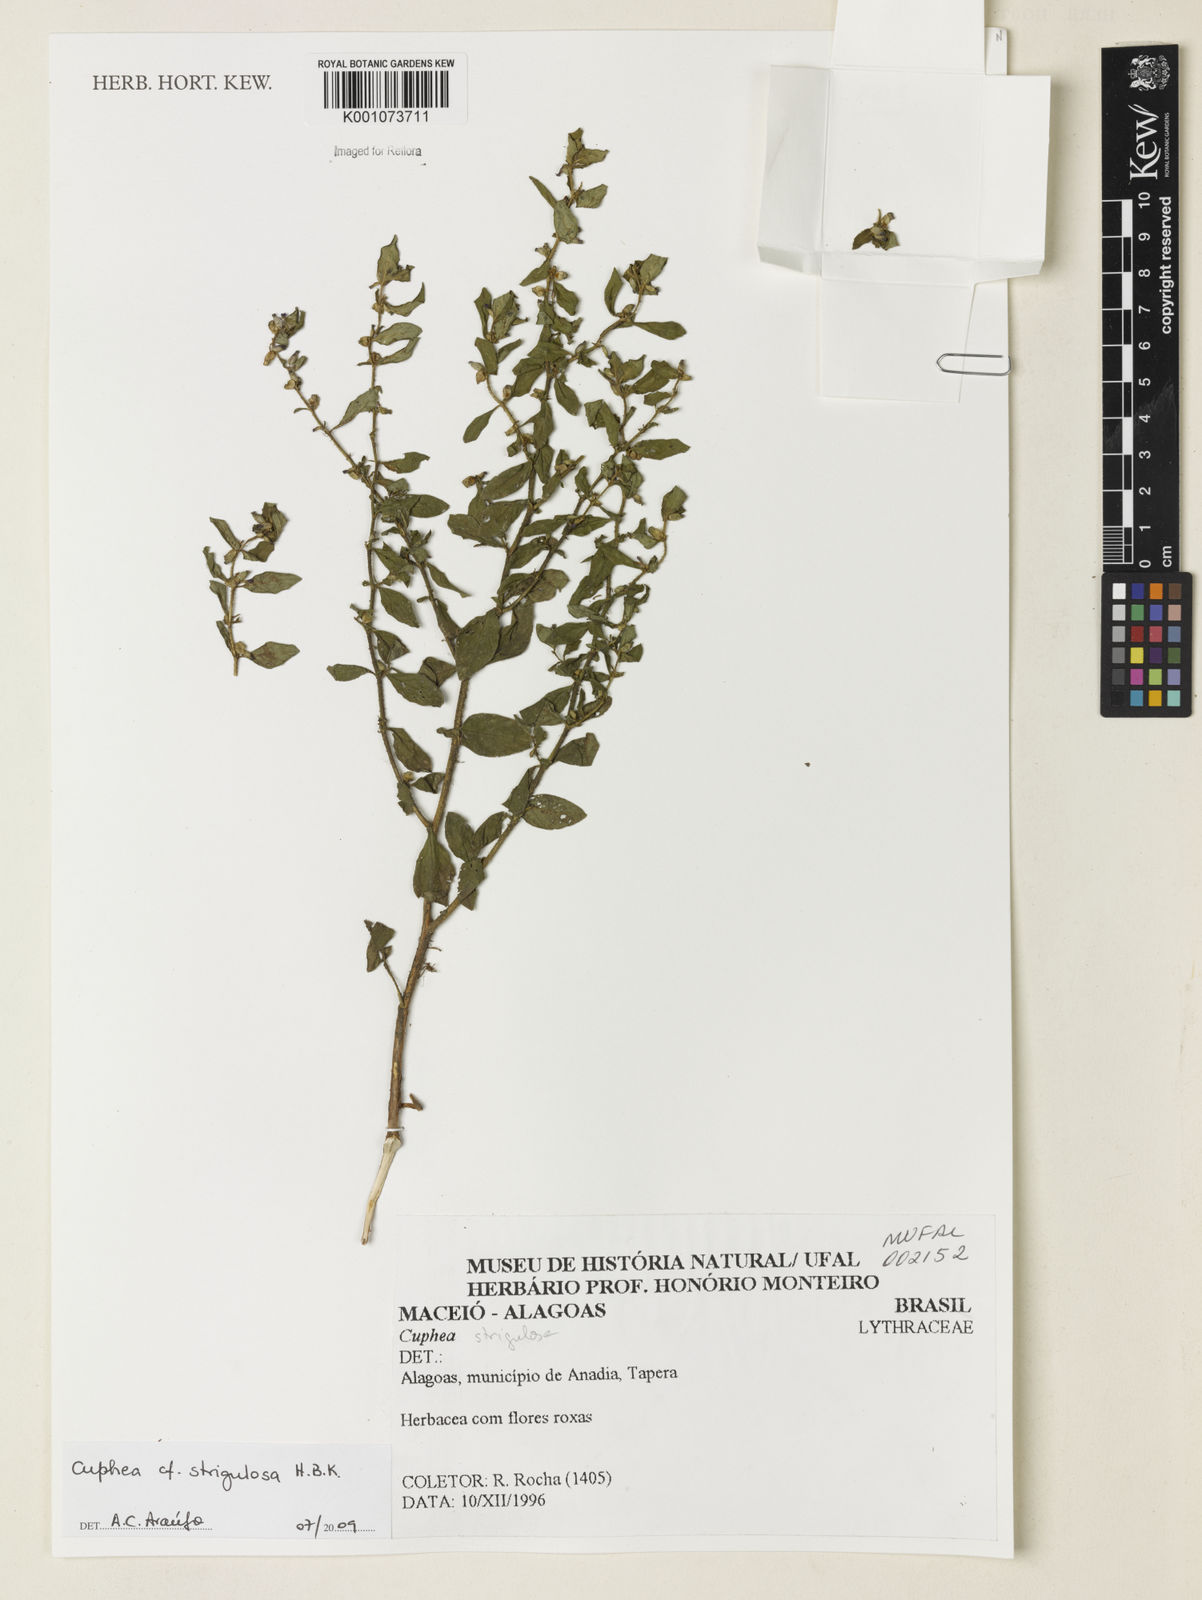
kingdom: Plantae
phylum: Tracheophyta
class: Magnoliopsida
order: Myrtales
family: Lythraceae
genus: Cuphea
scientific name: Cuphea strigulosa
